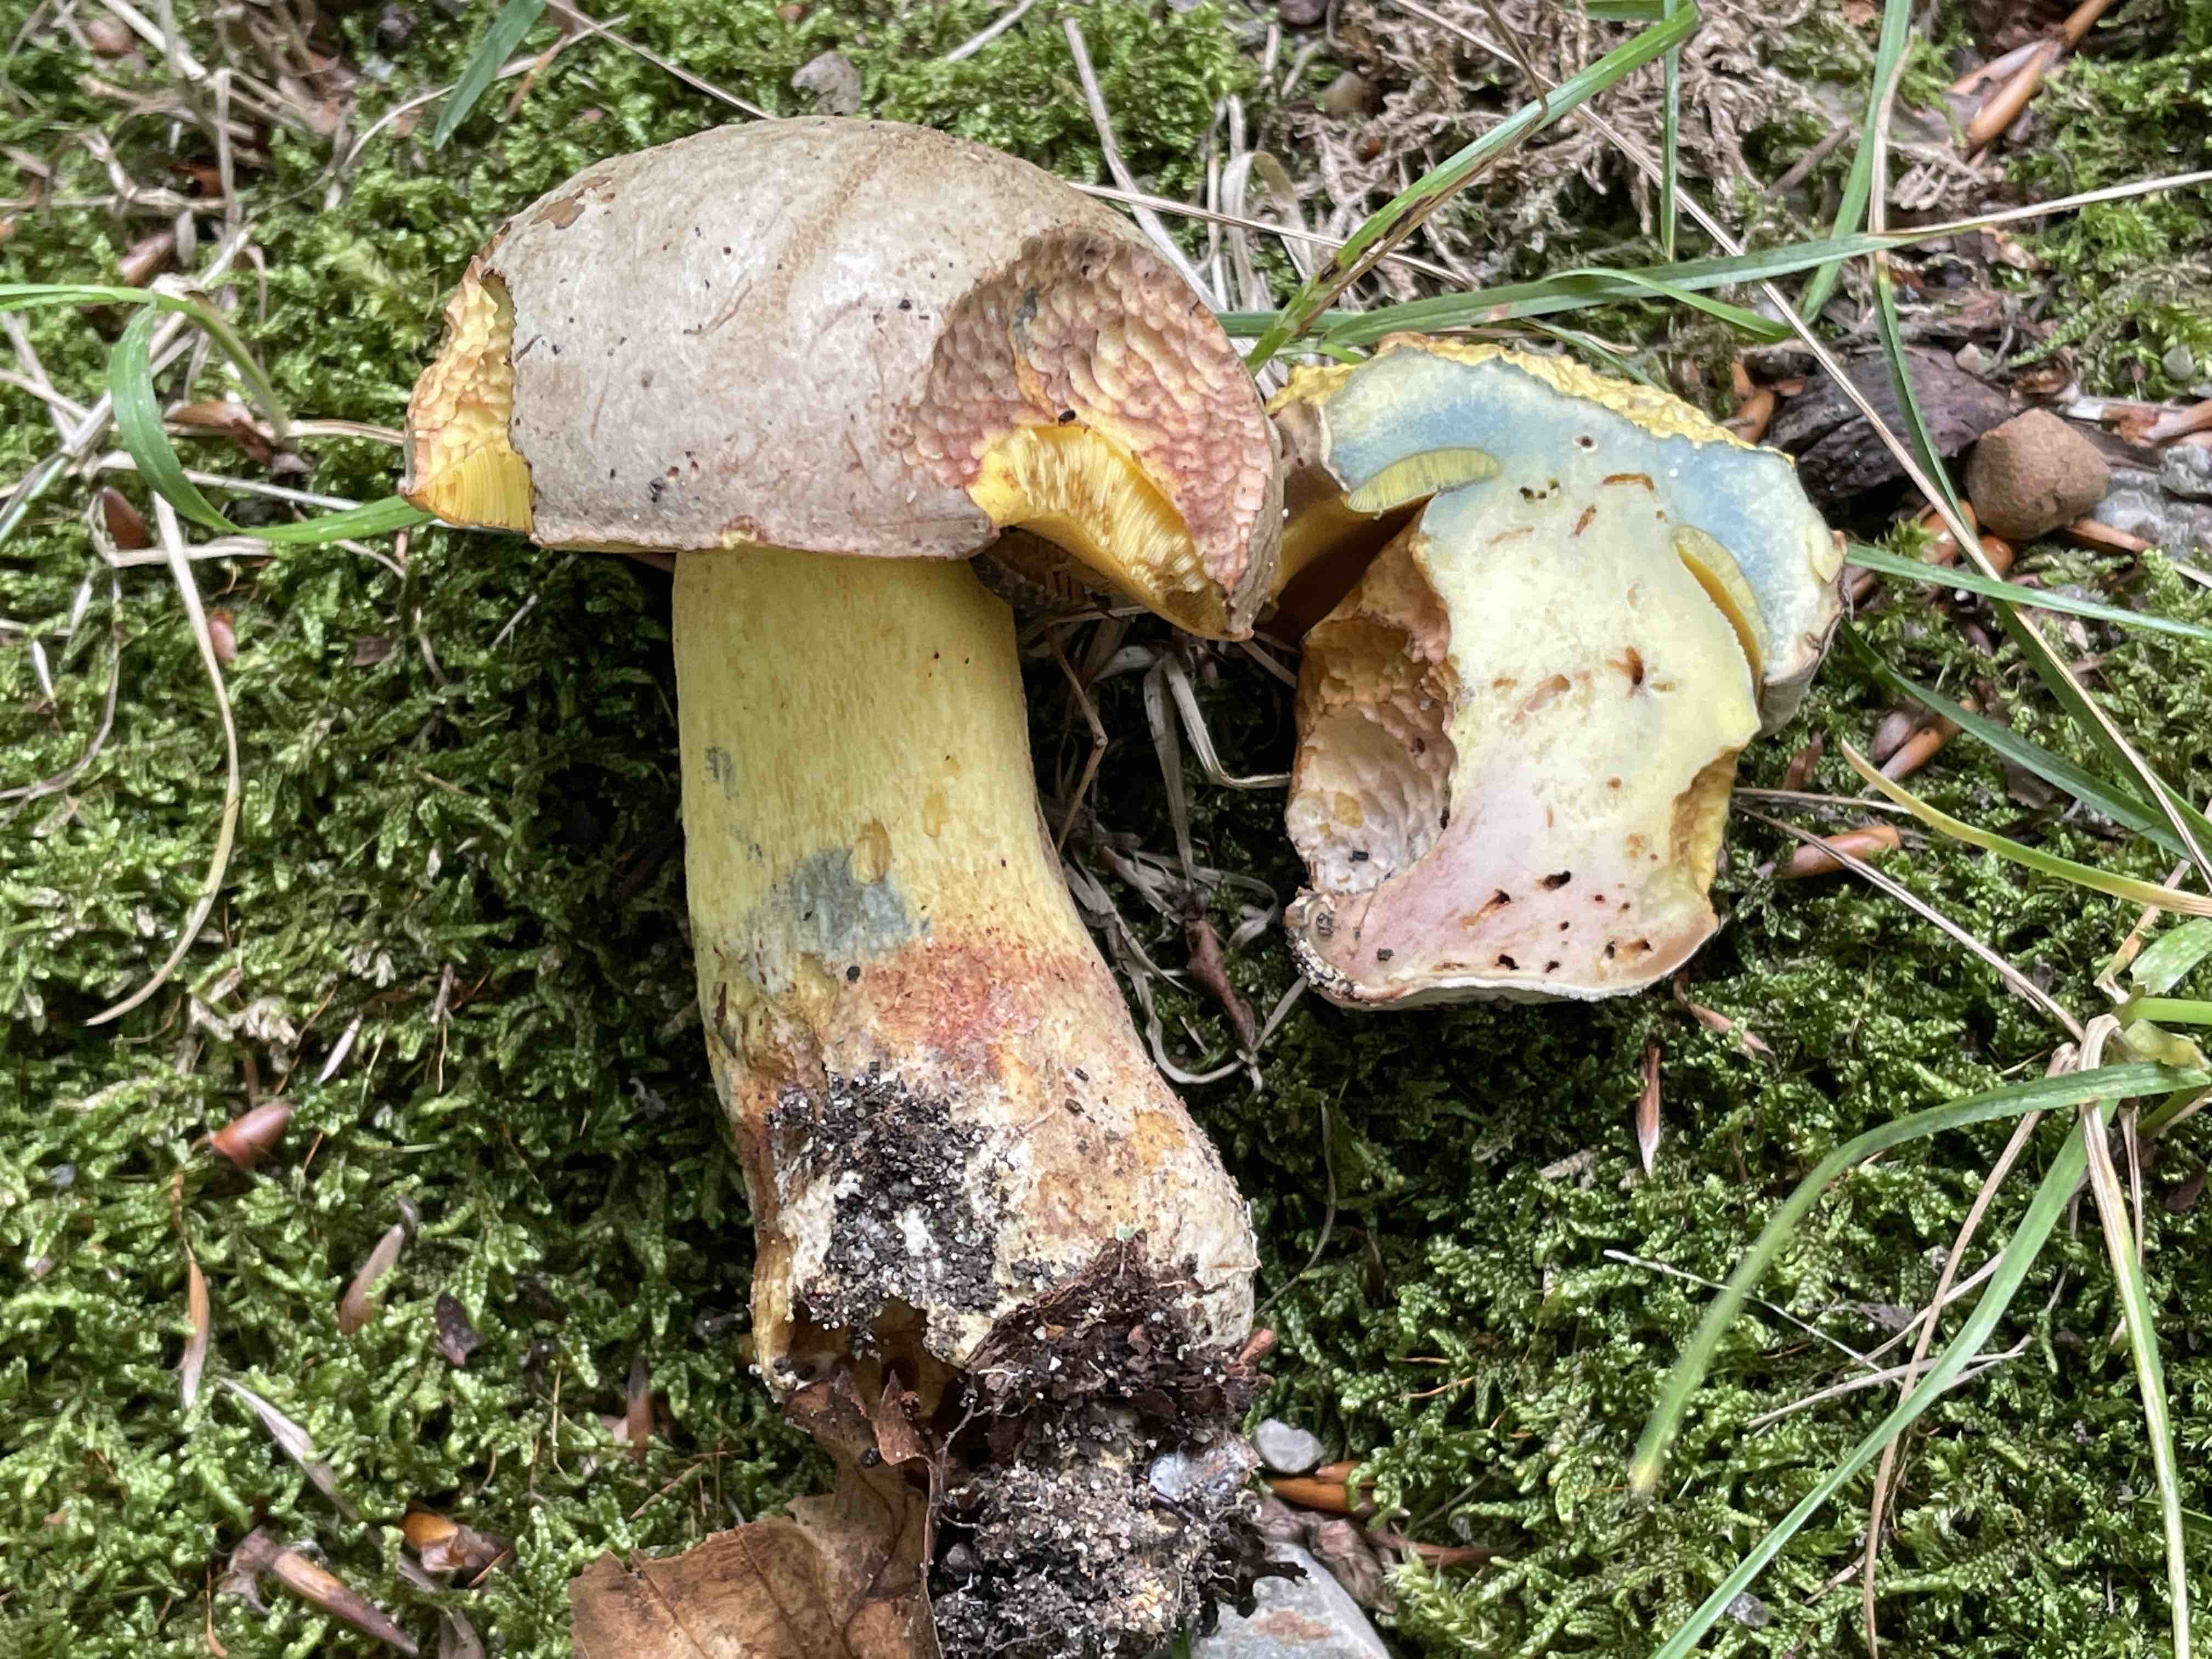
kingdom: Fungi
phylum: Basidiomycota
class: Agaricomycetes
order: Boletales
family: Boletaceae
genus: Butyriboletus
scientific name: Butyriboletus fechtneri
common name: sølvskinnende rørhat
